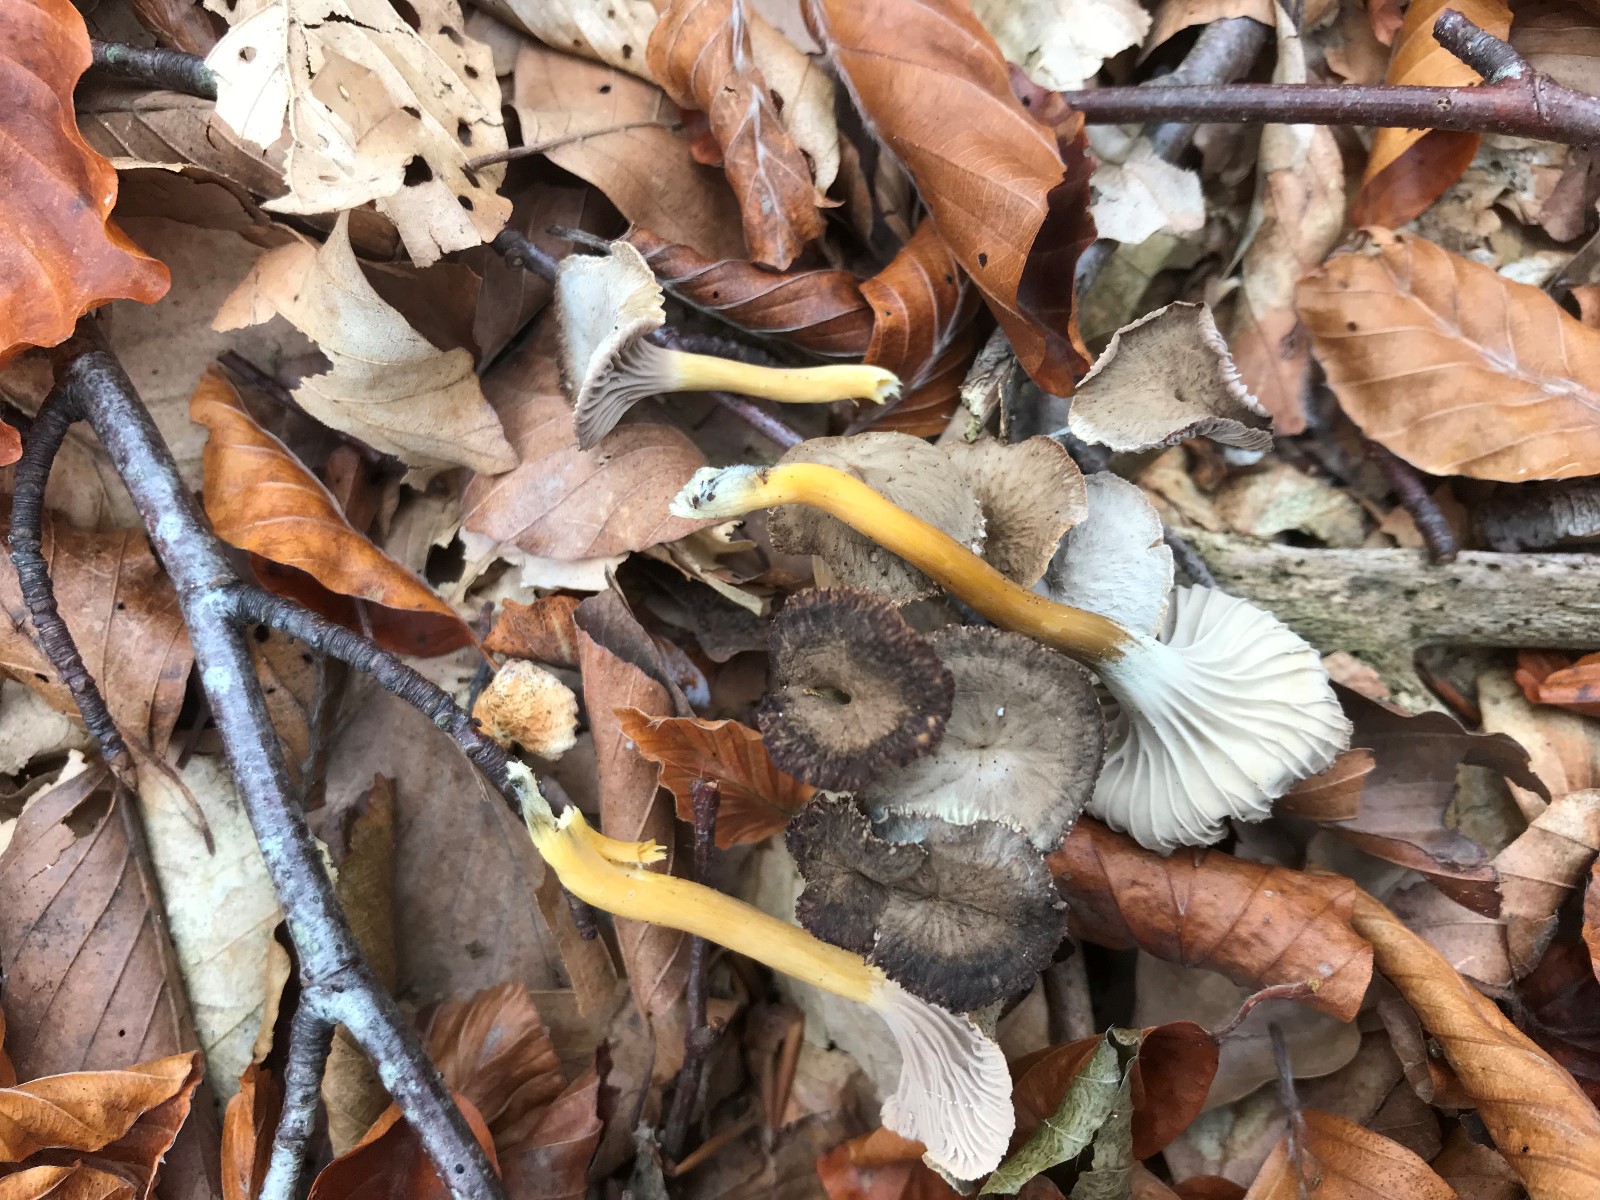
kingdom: Fungi
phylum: Basidiomycota
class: Agaricomycetes
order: Cantharellales
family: Hydnaceae
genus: Craterellus
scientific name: Craterellus tubaeformis
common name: tragt-kantarel
